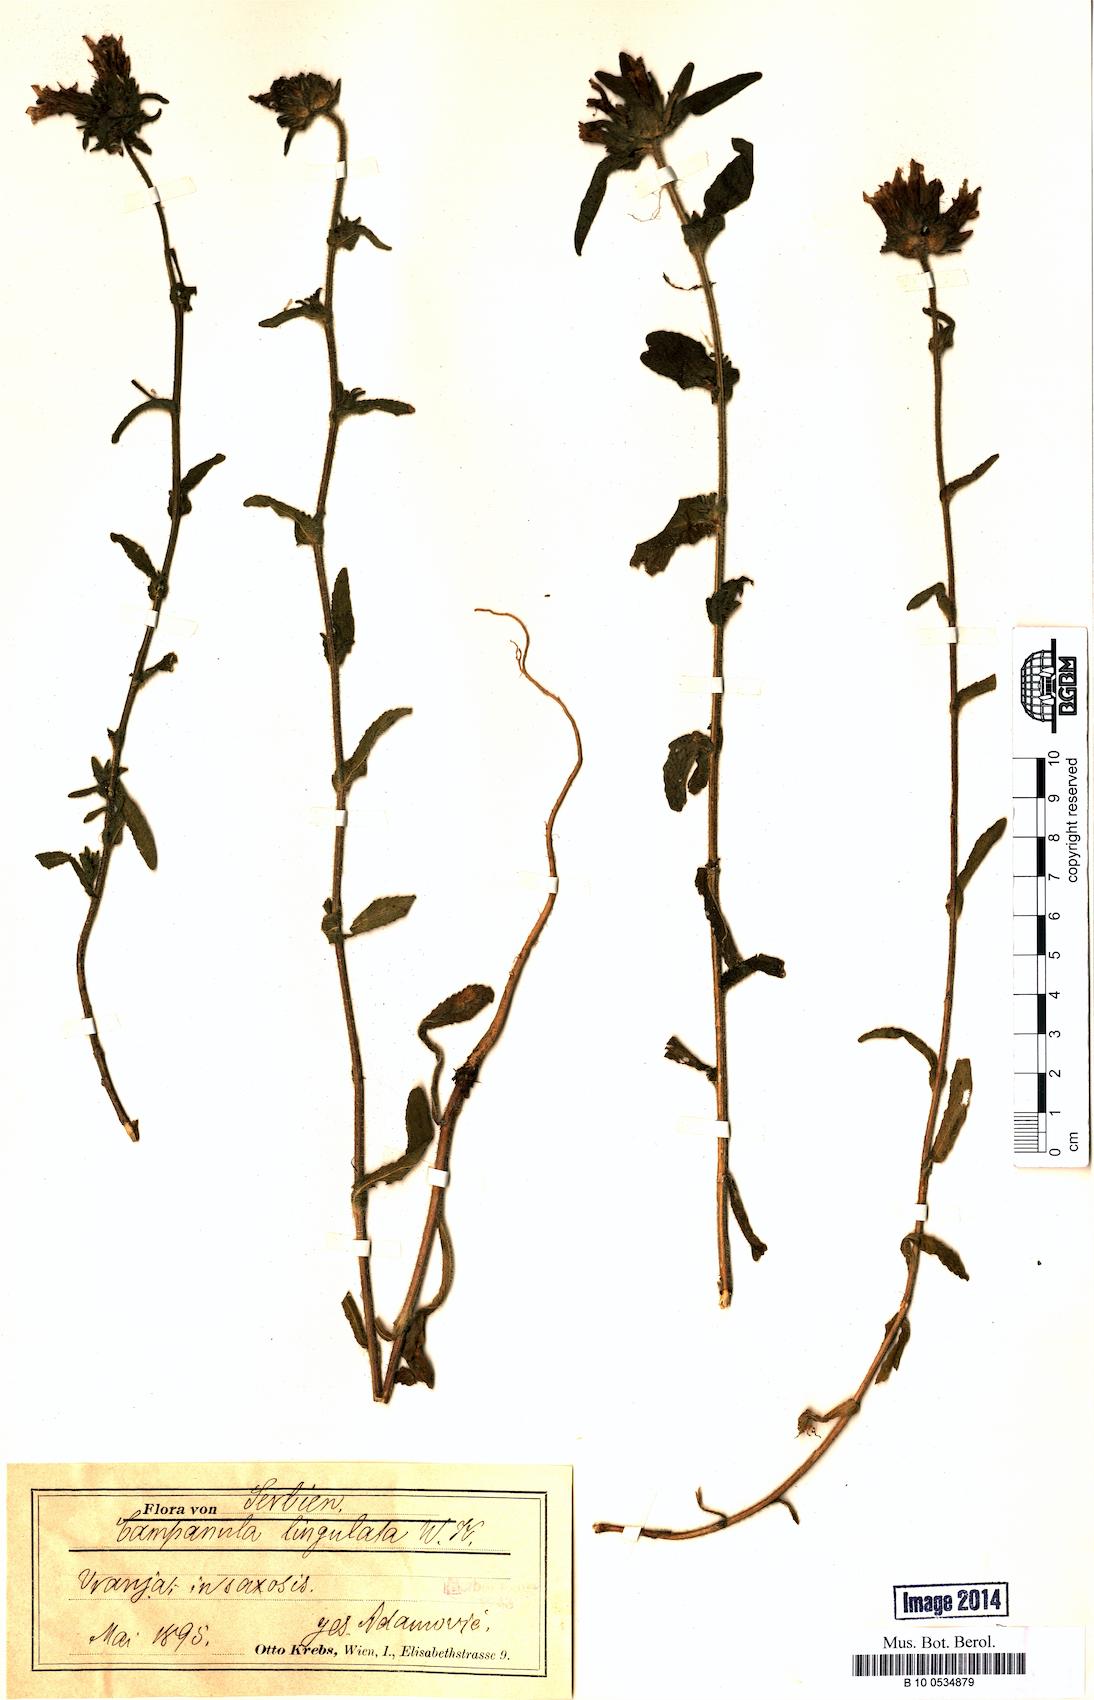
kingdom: Plantae
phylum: Tracheophyta
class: Magnoliopsida
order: Asterales
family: Campanulaceae
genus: Campanula
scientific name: Campanula lingulata
